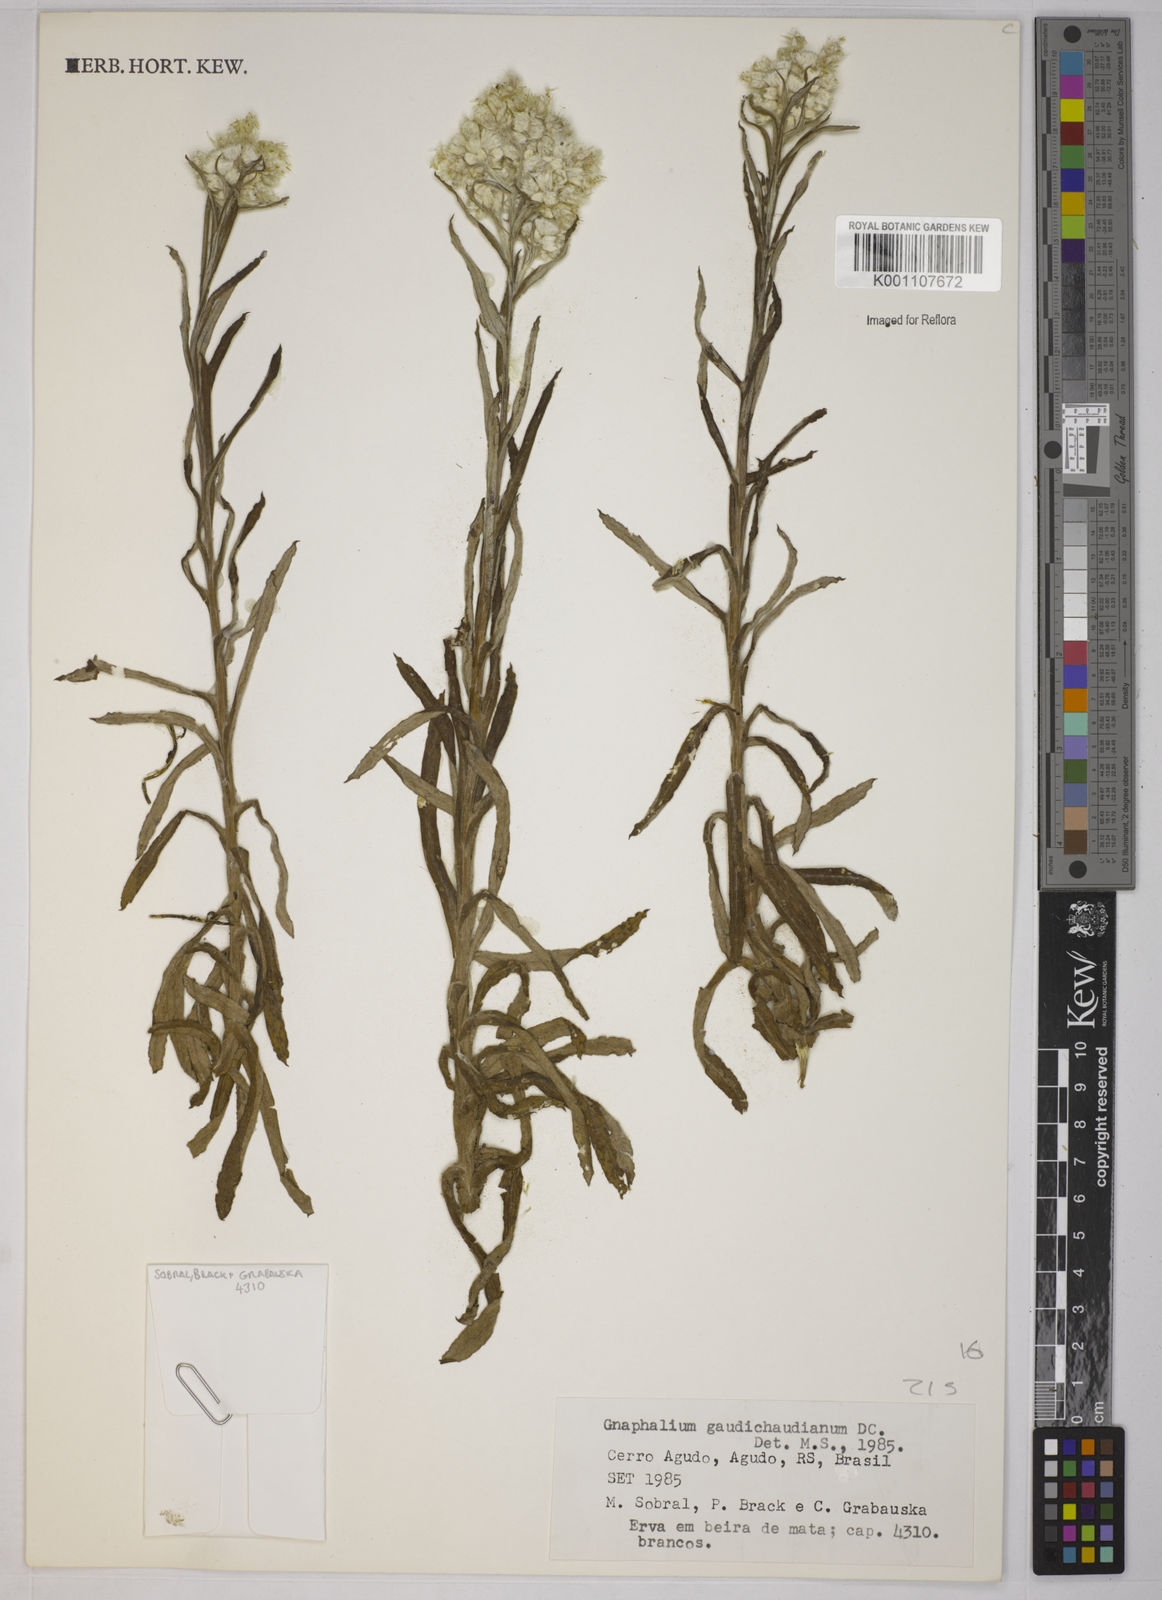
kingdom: Plantae
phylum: Tracheophyta
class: Magnoliopsida
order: Asterales
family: Asteraceae
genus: Pseudognaphalium
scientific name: Pseudognaphalium gaudichaudianum
